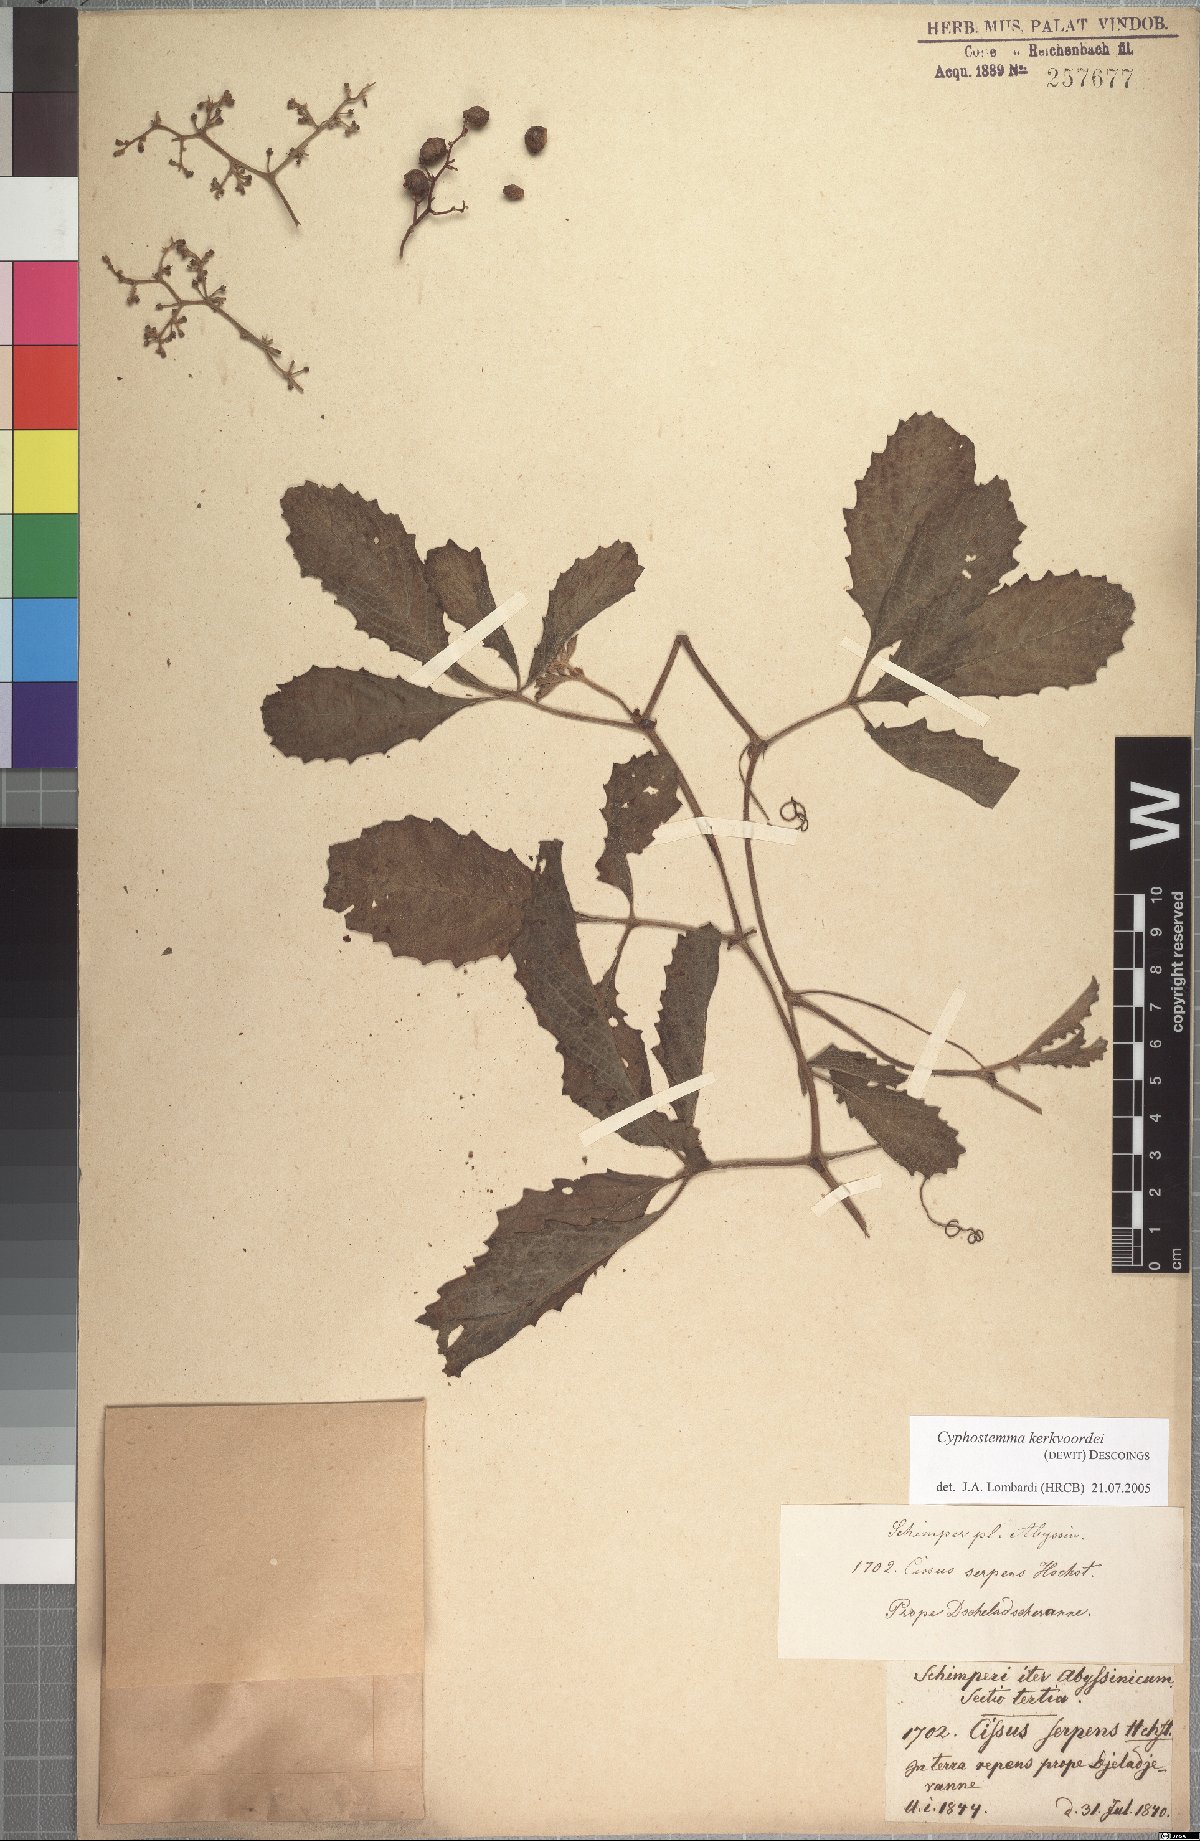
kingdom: Plantae
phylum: Tracheophyta
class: Magnoliopsida
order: Vitales
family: Vitaceae
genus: Cyphostemma
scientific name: Cyphostemma serpens
